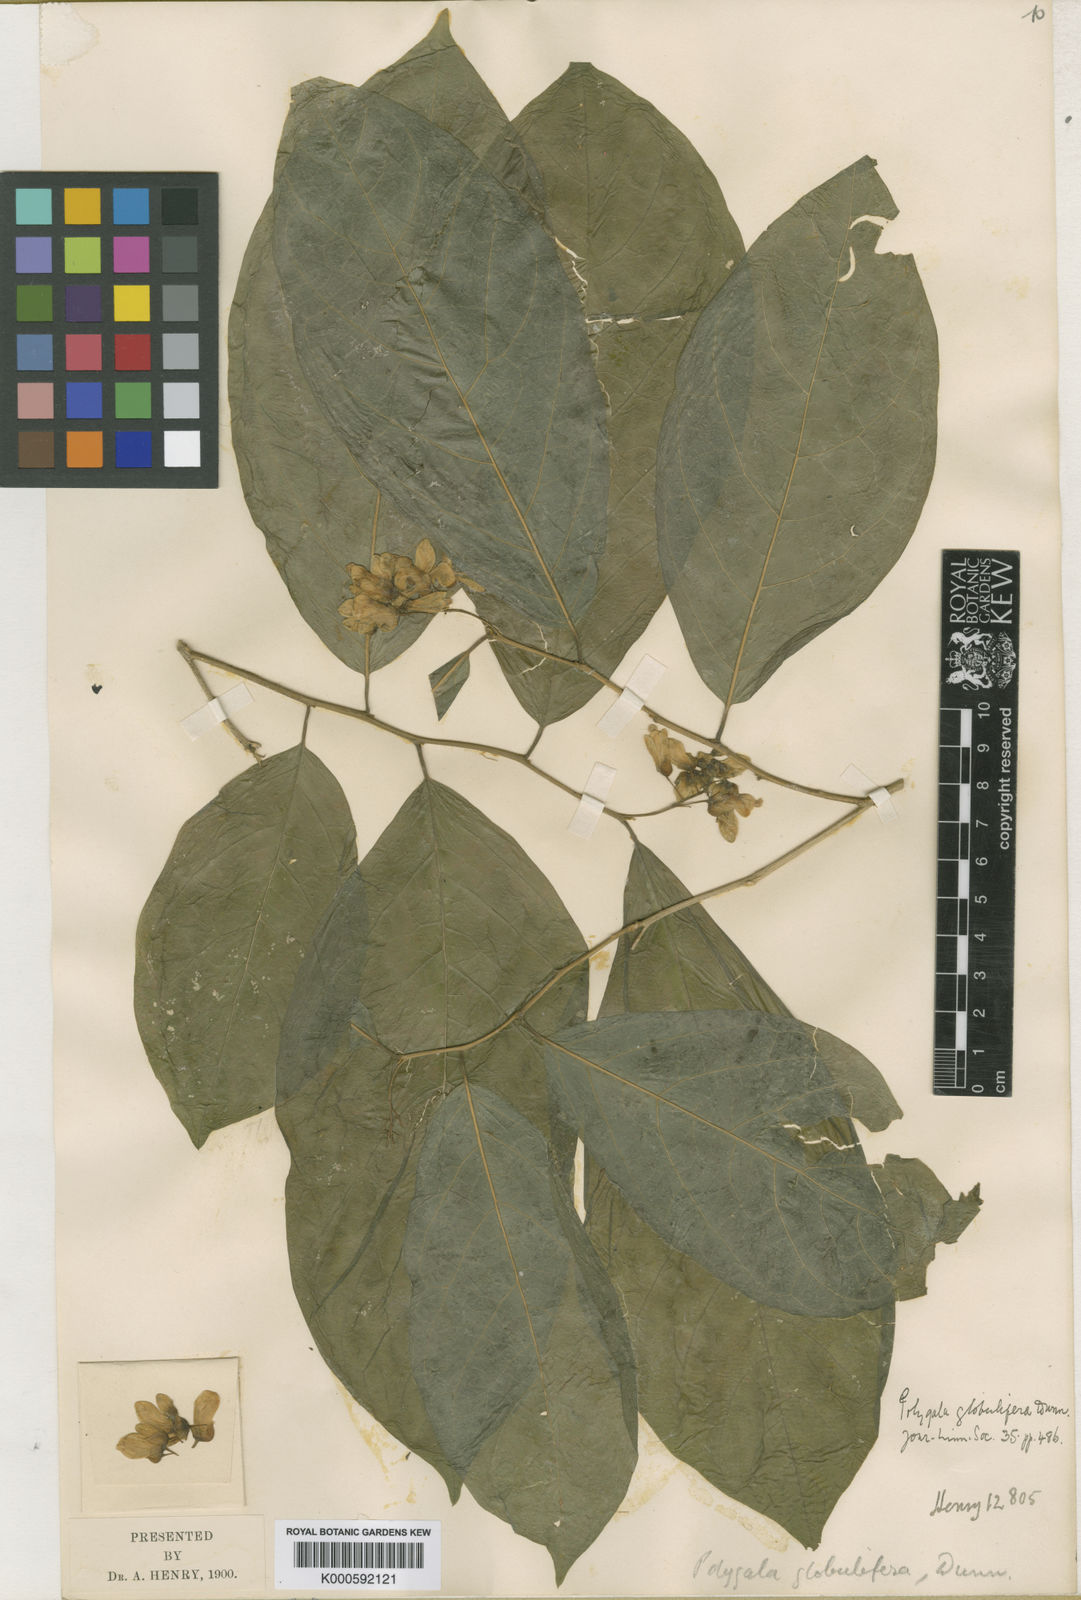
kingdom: Plantae
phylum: Tracheophyta
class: Magnoliopsida
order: Fabales
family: Polygalaceae
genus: Polygala
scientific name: Polygala globulifera
